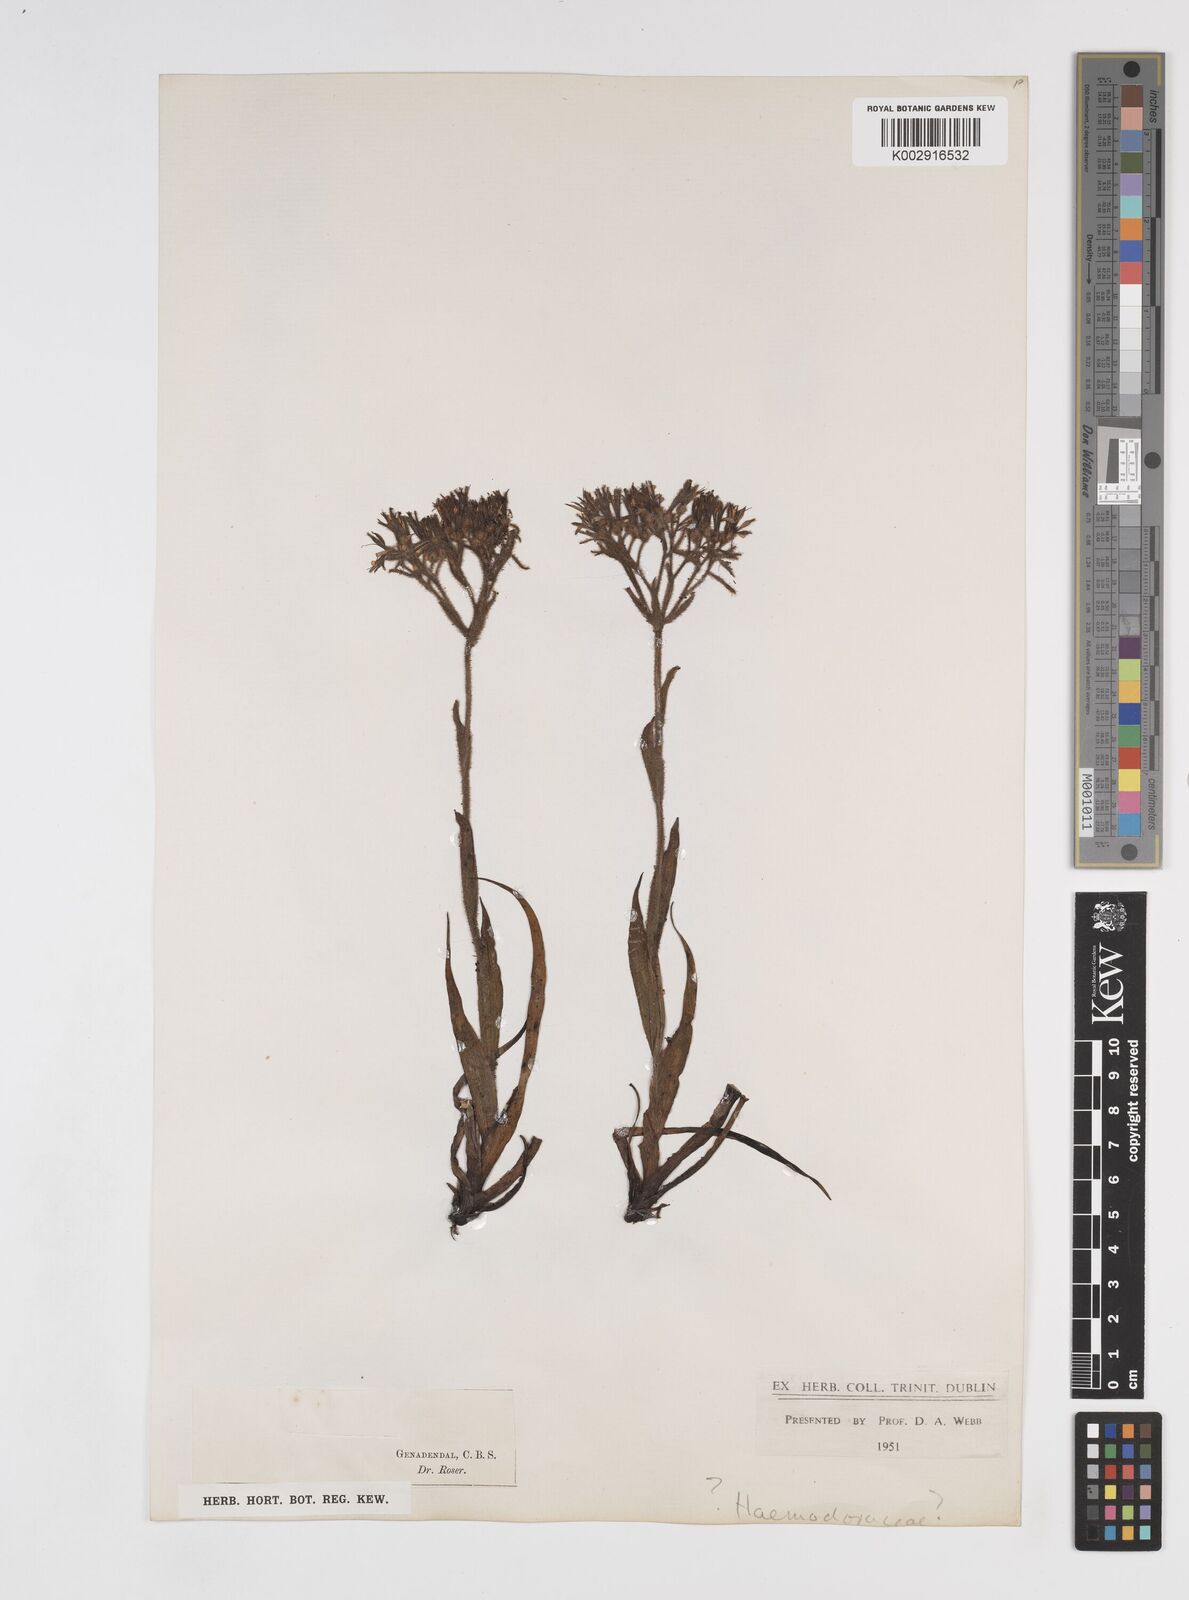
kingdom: Plantae
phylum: Tracheophyta
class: Liliopsida
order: Commelinales
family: Haemodoraceae
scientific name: Haemodoraceae
